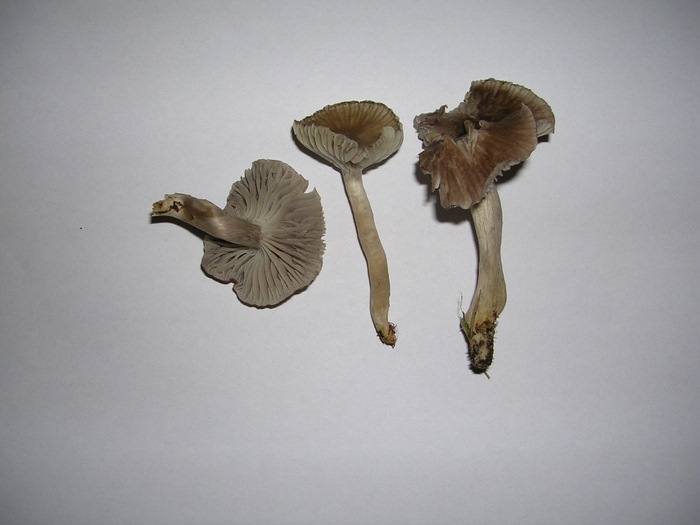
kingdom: Fungi
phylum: Basidiomycota
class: Agaricomycetes
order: Agaricales
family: Hygrophoraceae
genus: Cuphophyllus
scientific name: Cuphophyllus flavipes
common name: gulfodet vokshat
